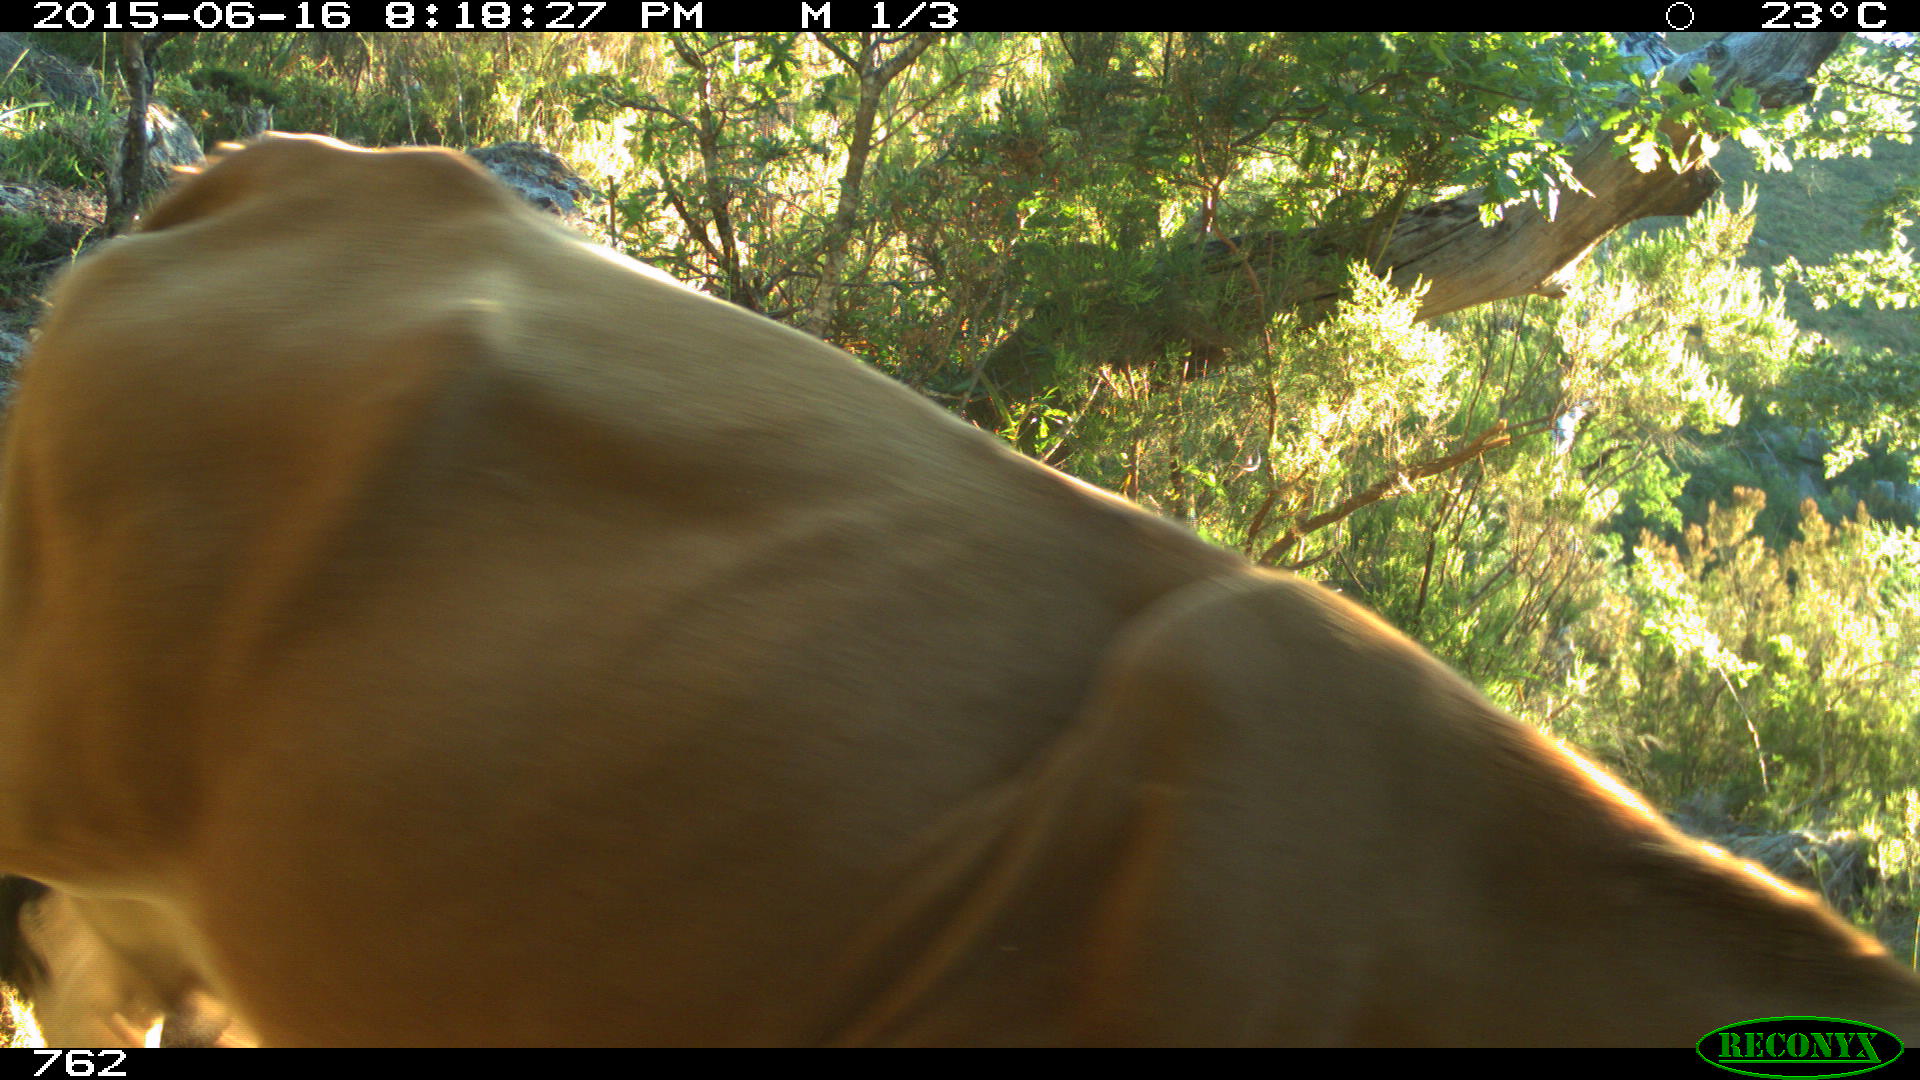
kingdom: Animalia
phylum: Chordata
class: Mammalia
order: Artiodactyla
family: Bovidae
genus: Bos
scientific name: Bos taurus
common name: Domesticated cattle
